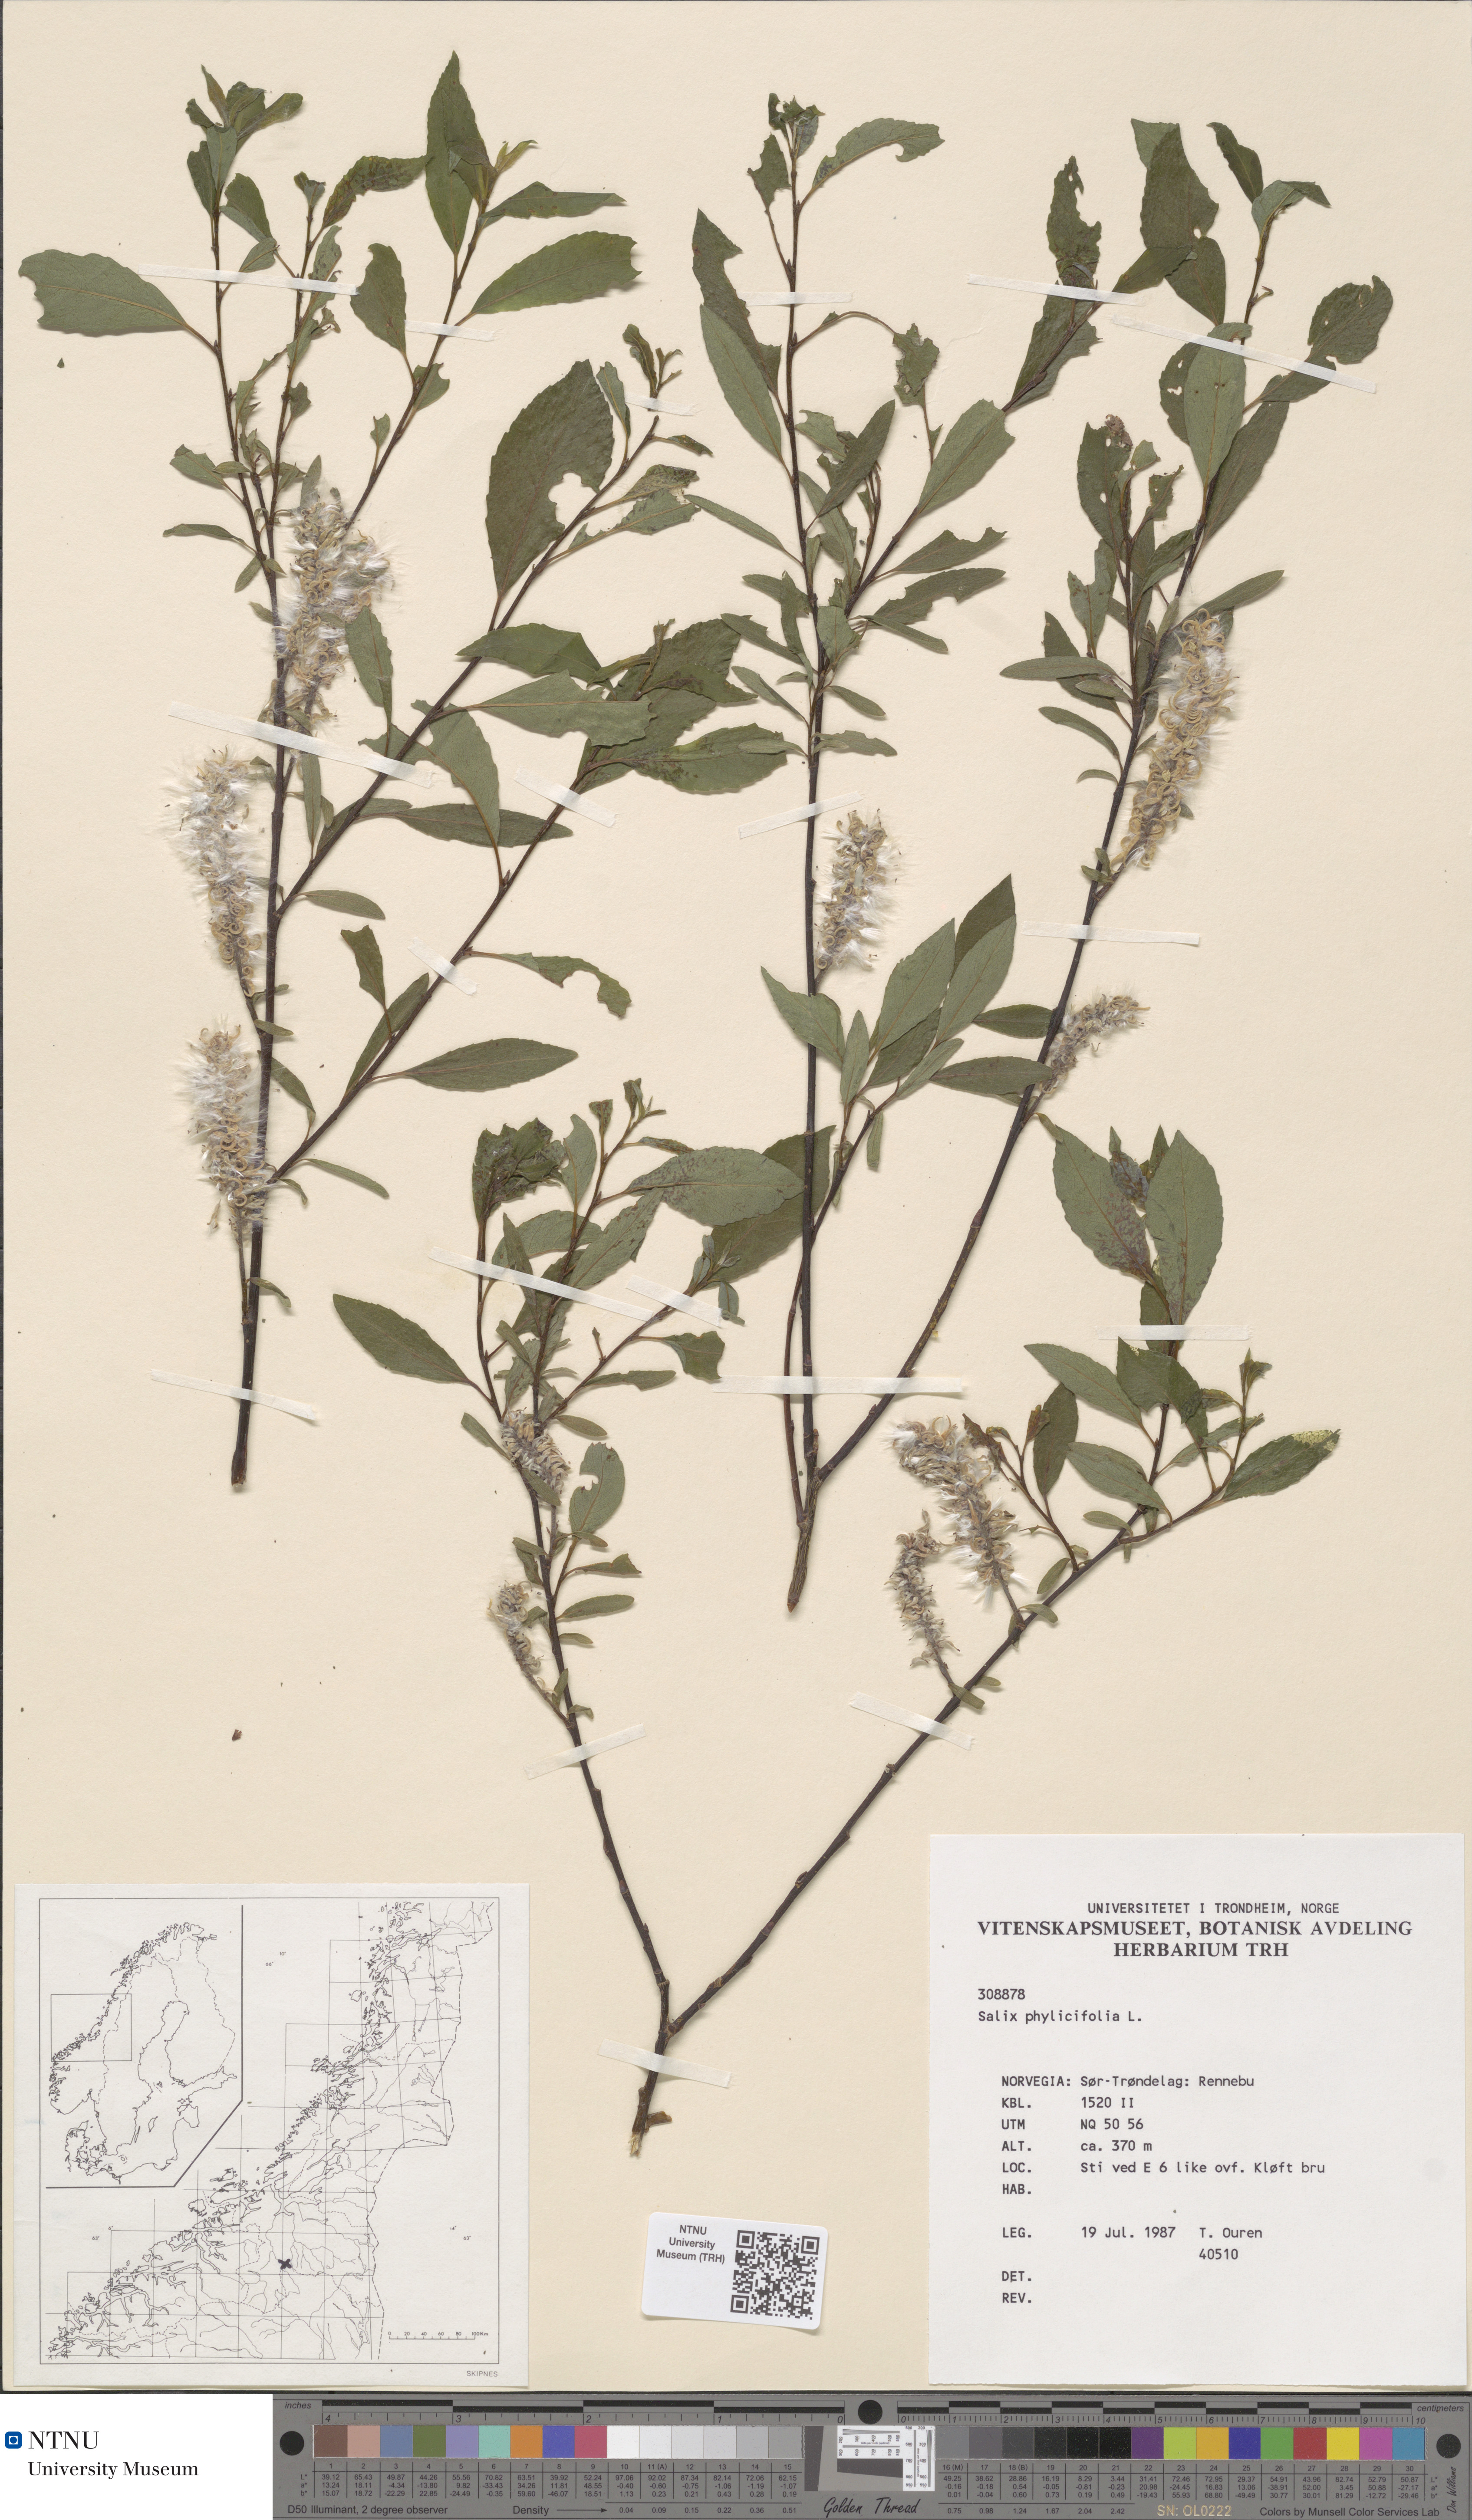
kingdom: Plantae
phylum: Tracheophyta
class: Magnoliopsida
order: Malpighiales
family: Salicaceae
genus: Salix
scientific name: Salix phylicifolia
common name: Tea-leaved willow
